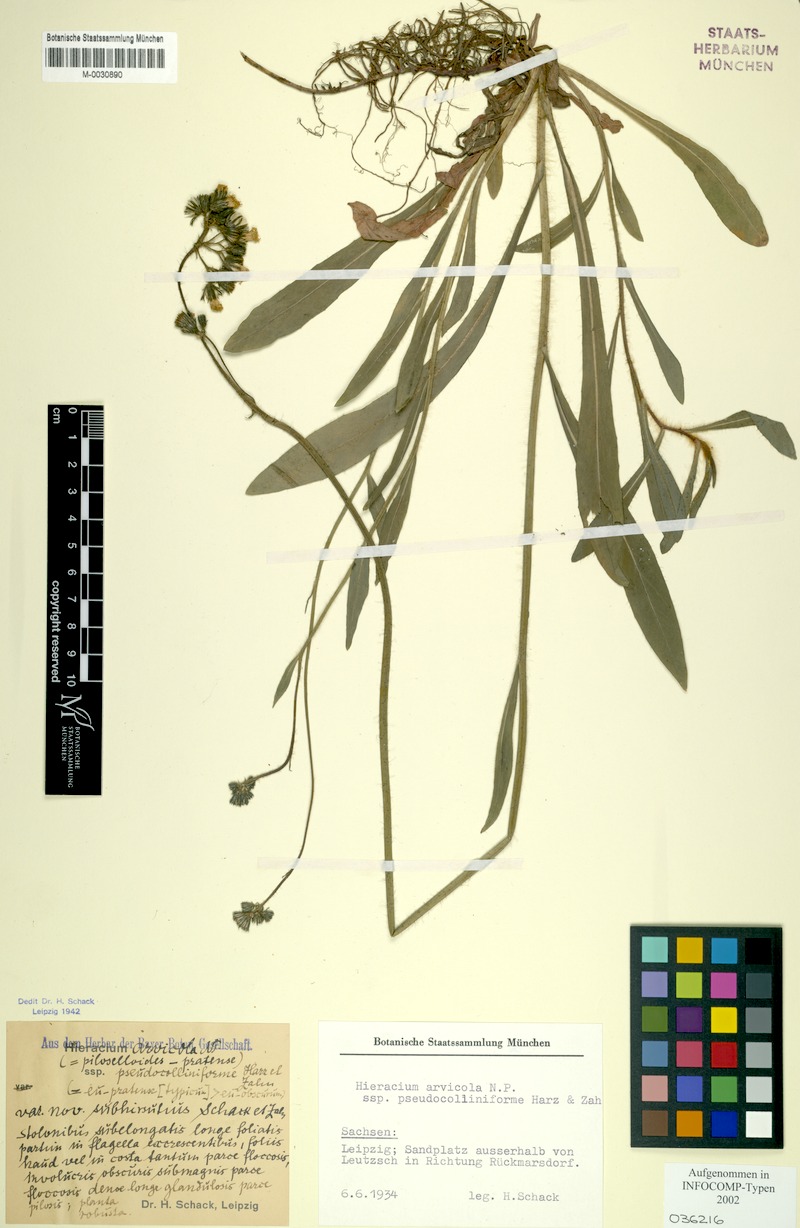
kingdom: Plantae
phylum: Tracheophyta
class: Magnoliopsida
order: Asterales
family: Asteraceae
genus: Pilosella
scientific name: Pilosella erythrochrista
